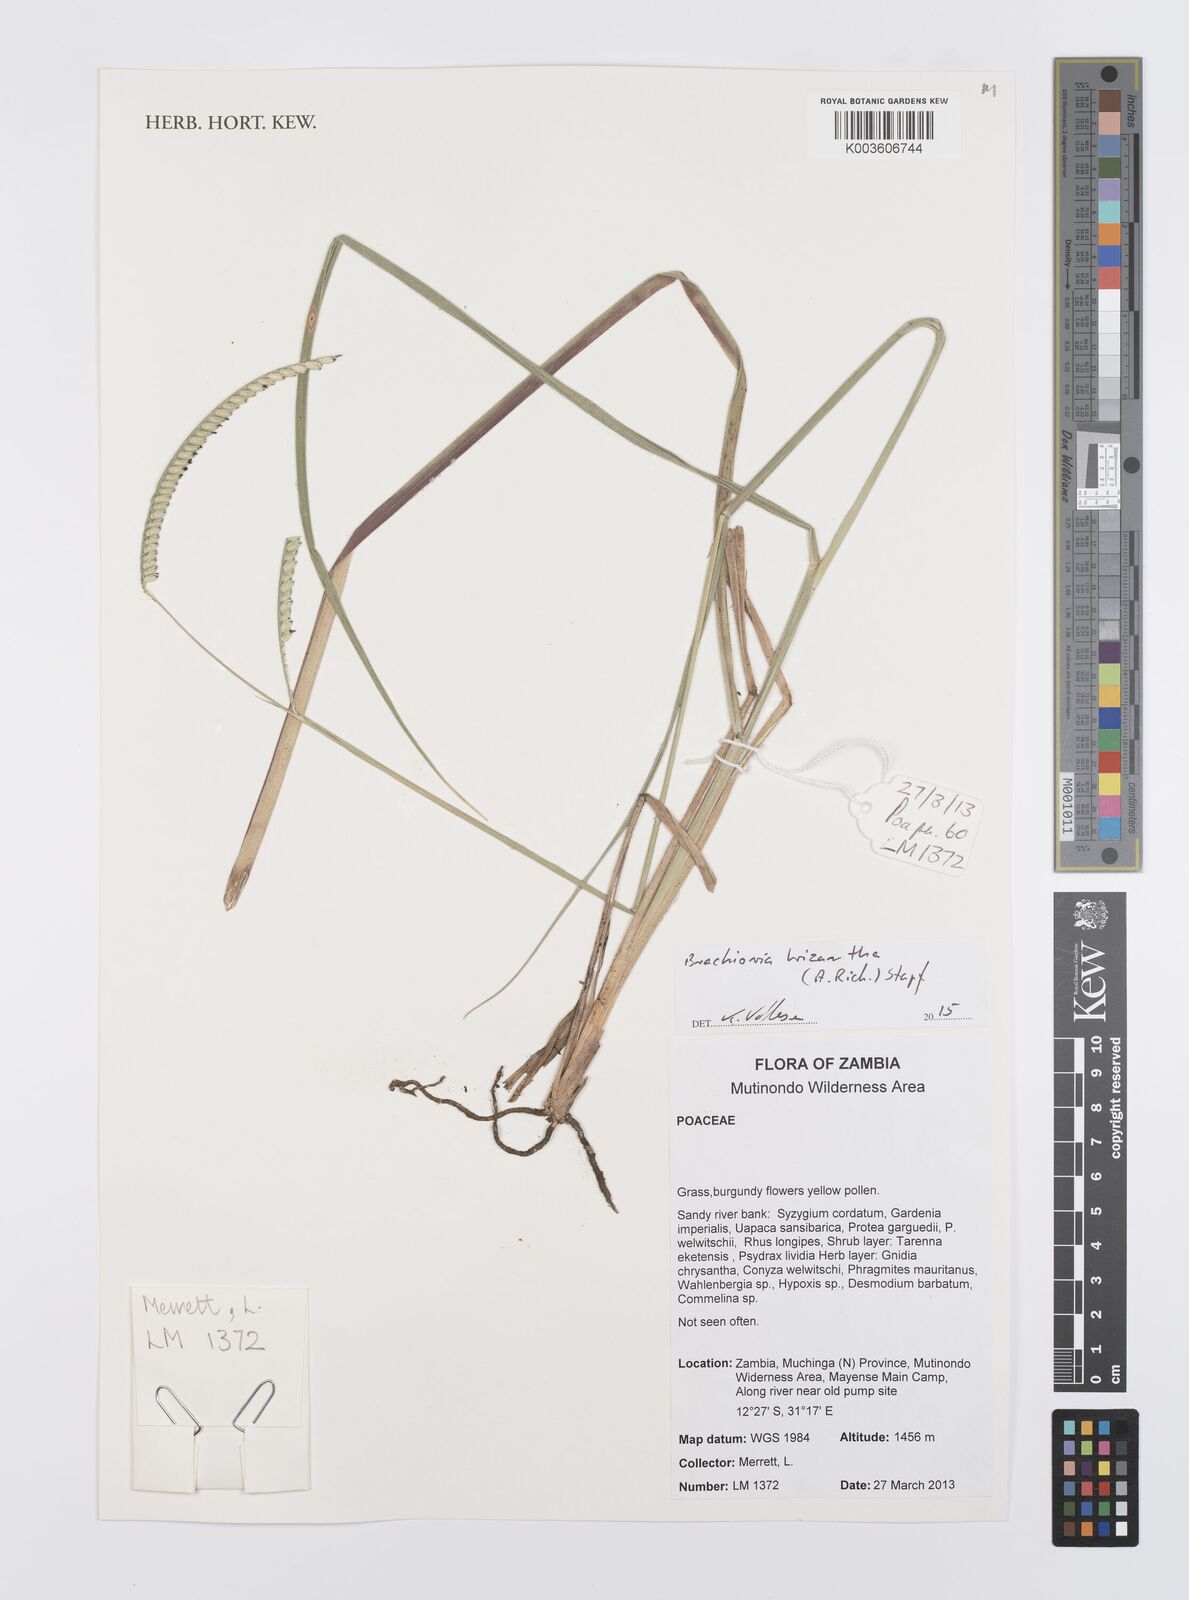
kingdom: Plantae
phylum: Tracheophyta
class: Liliopsida
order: Poales
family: Poaceae
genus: Urochloa
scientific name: Urochloa brizantha
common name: Palisade signalgrass
